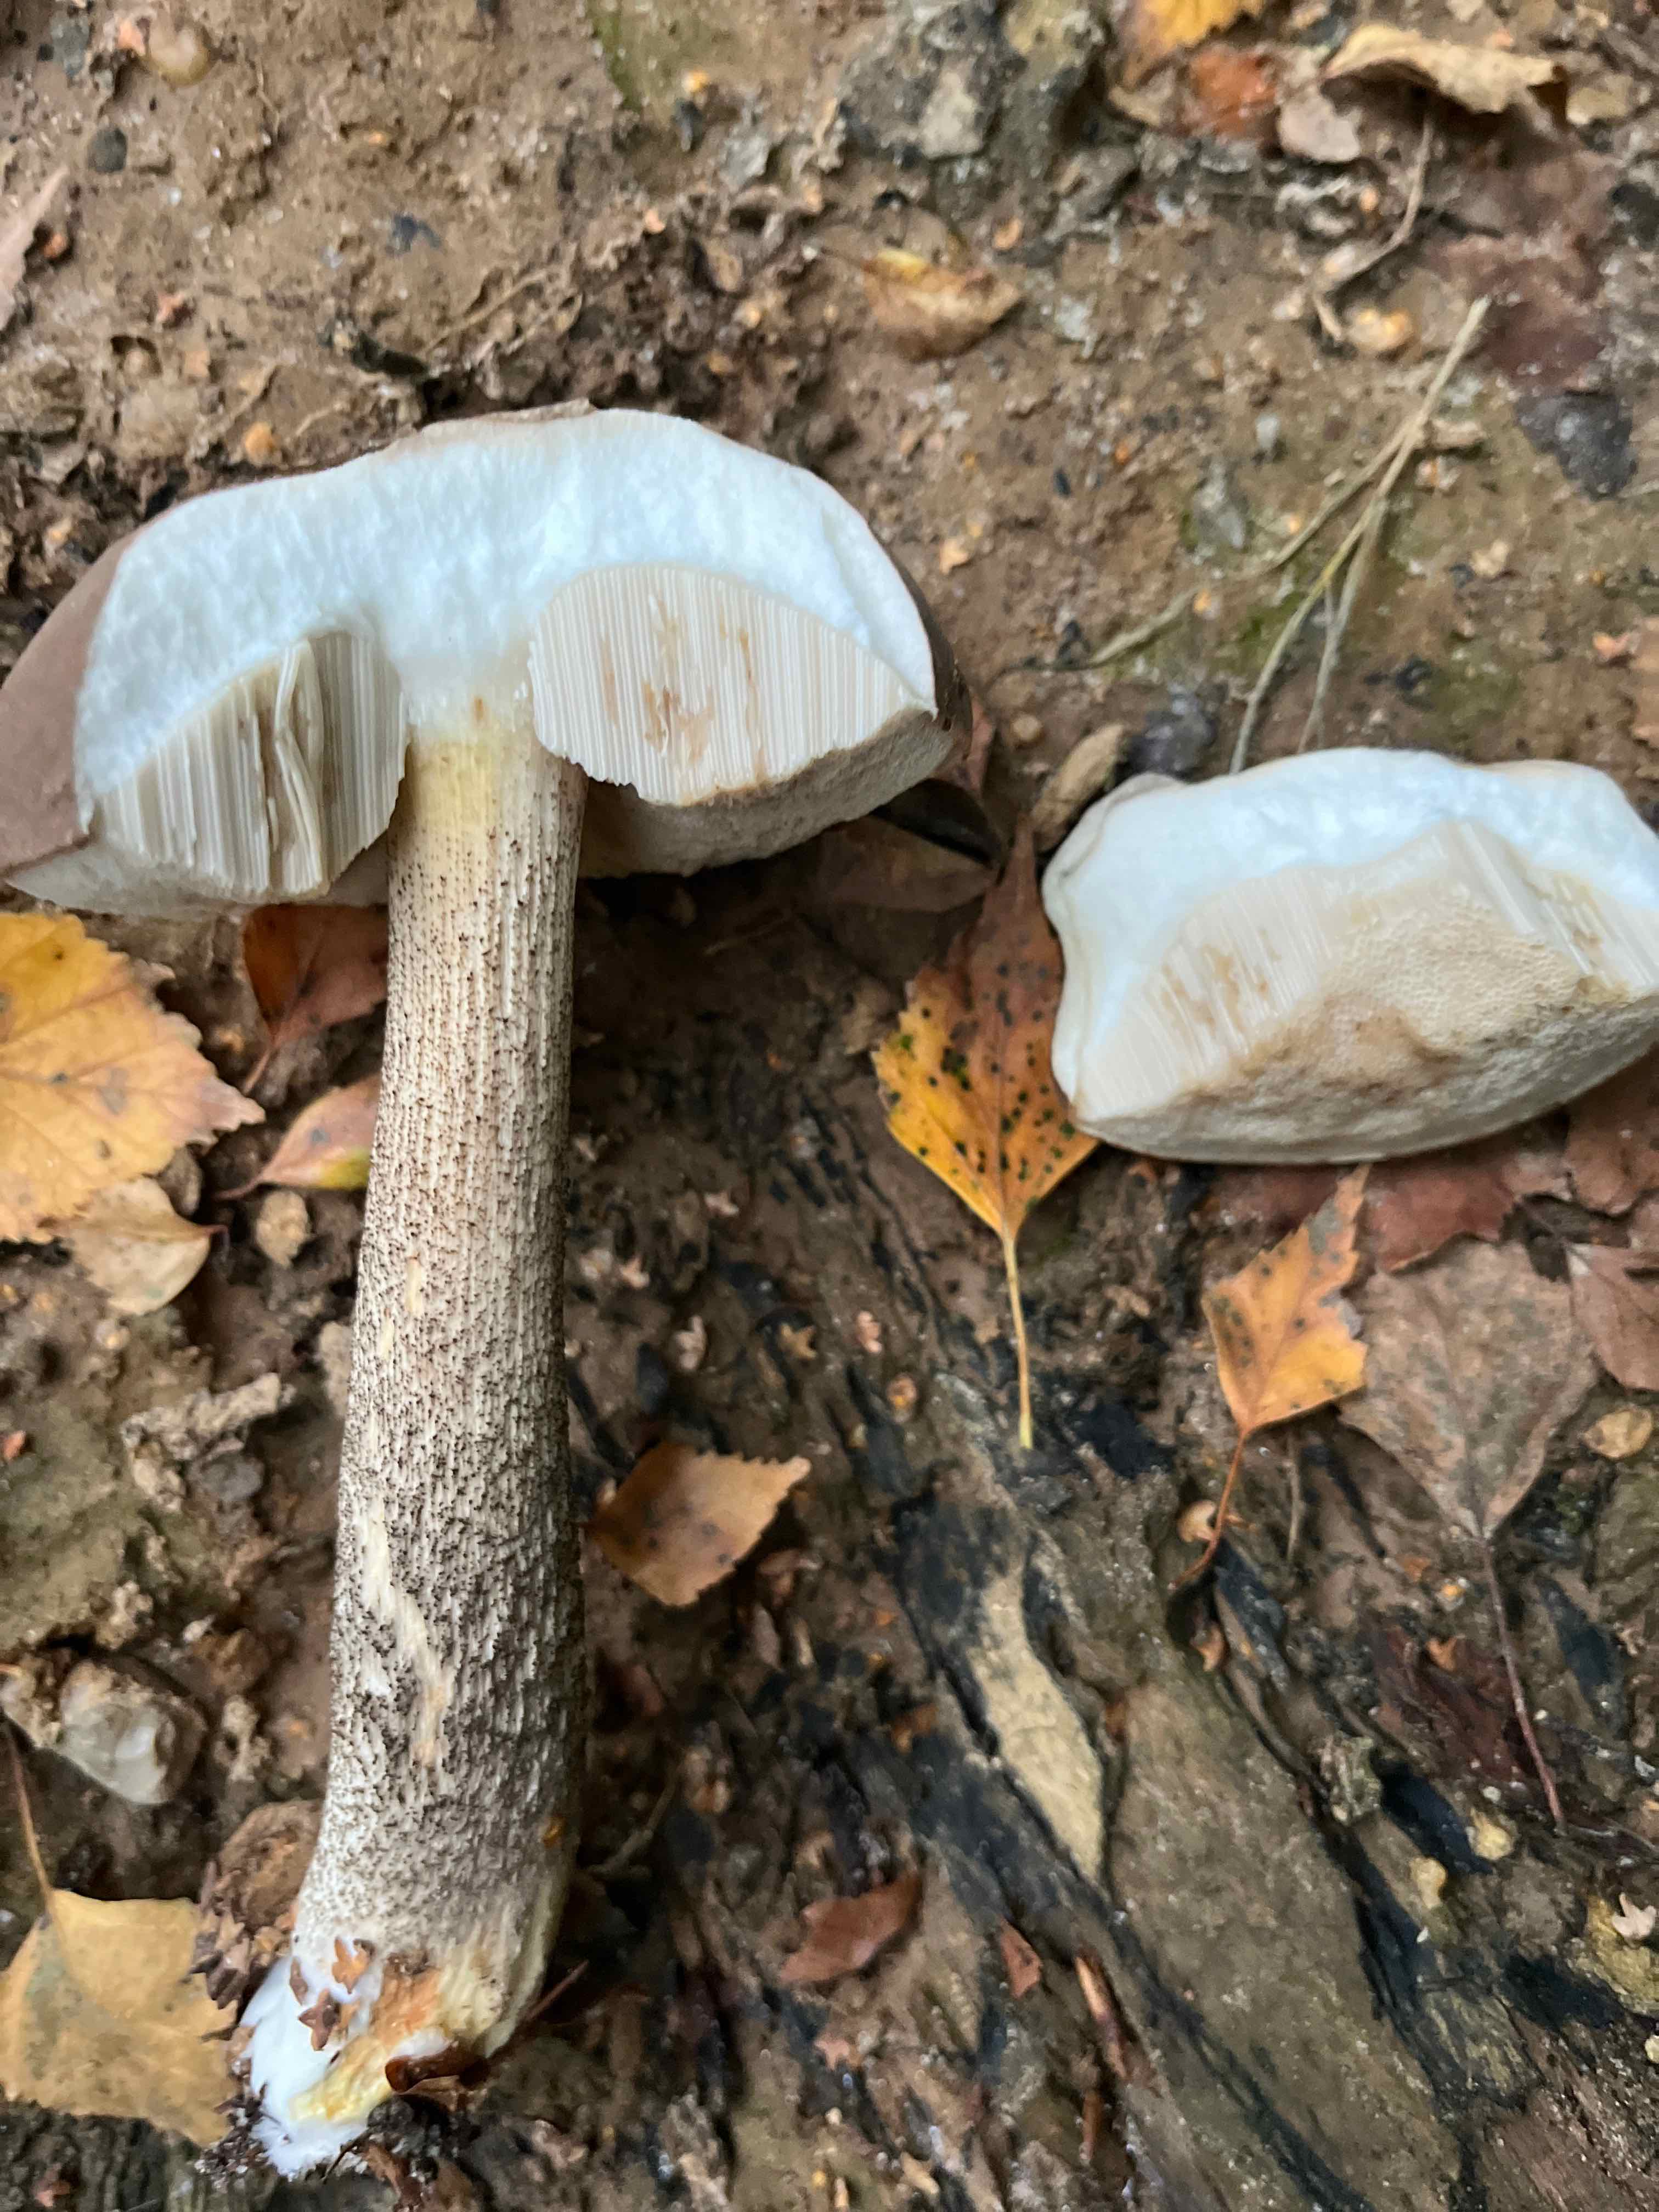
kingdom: Fungi
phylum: Basidiomycota
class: Agaricomycetes
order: Boletales
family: Boletaceae
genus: Leccinum
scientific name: Leccinum scabrum
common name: brun skælrørhat
